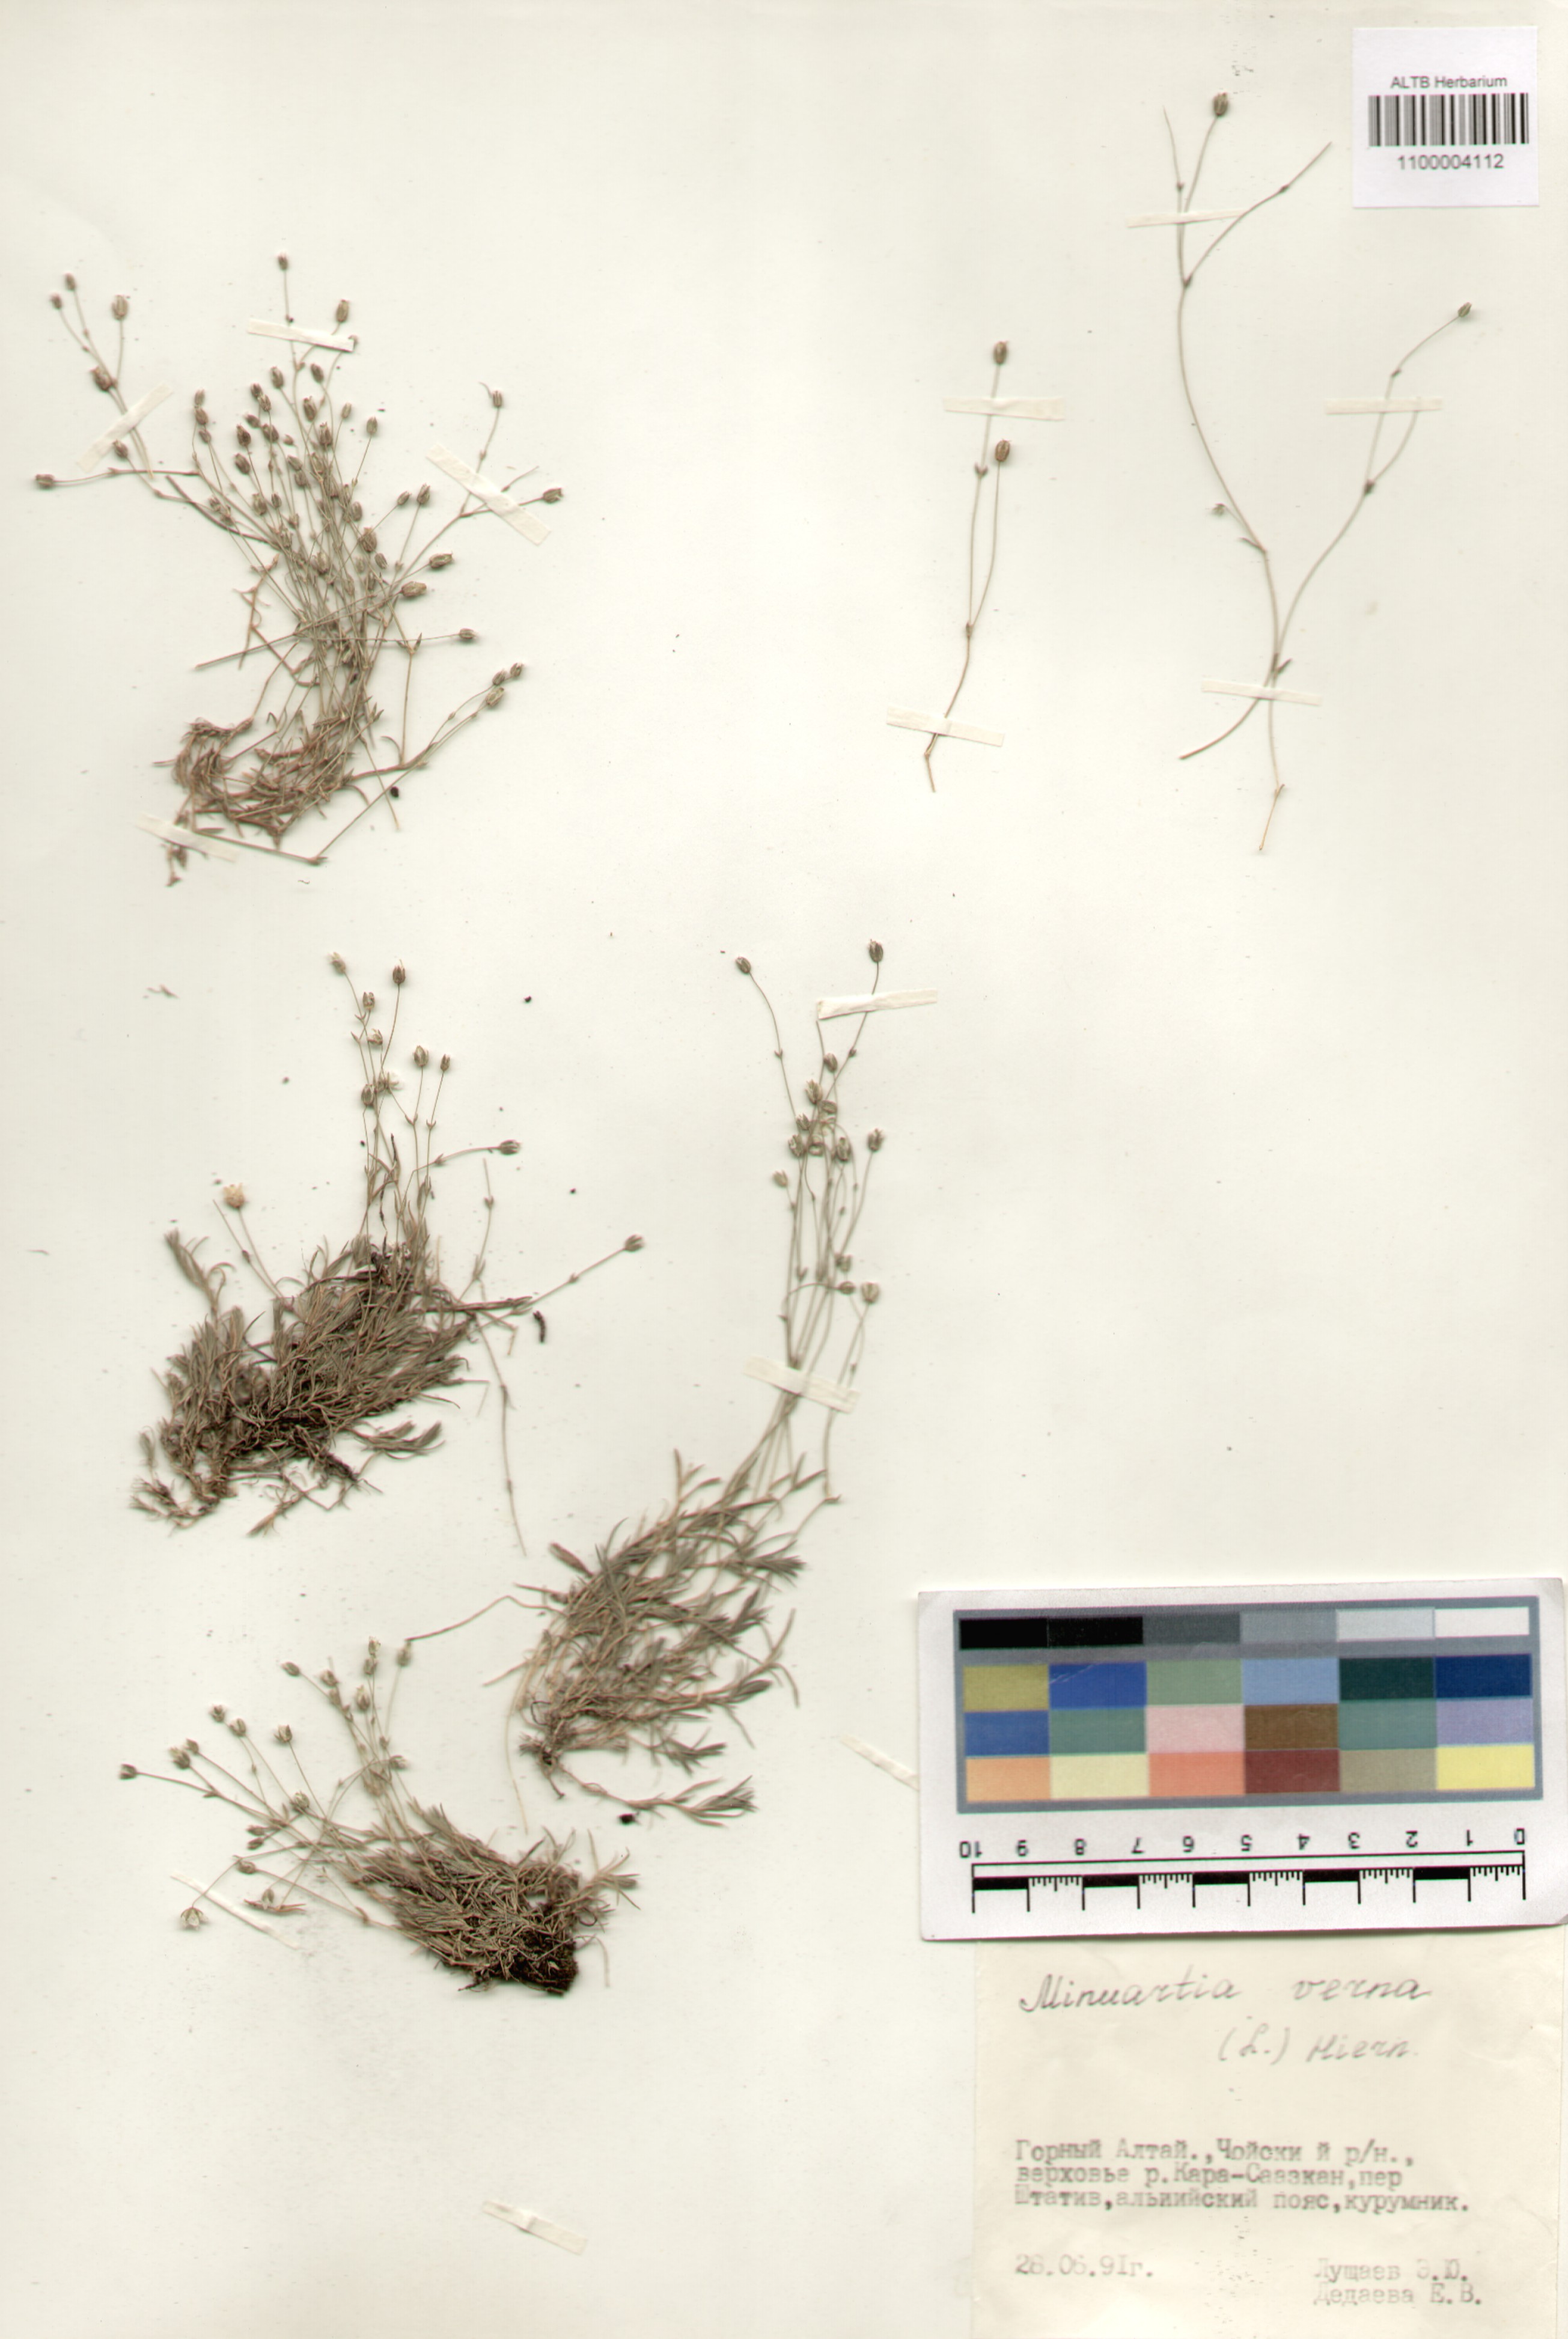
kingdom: Plantae
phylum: Tracheophyta
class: Magnoliopsida
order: Caryophyllales
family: Caryophyllaceae
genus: Sabulina
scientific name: Sabulina verna
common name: Spring sandwort
